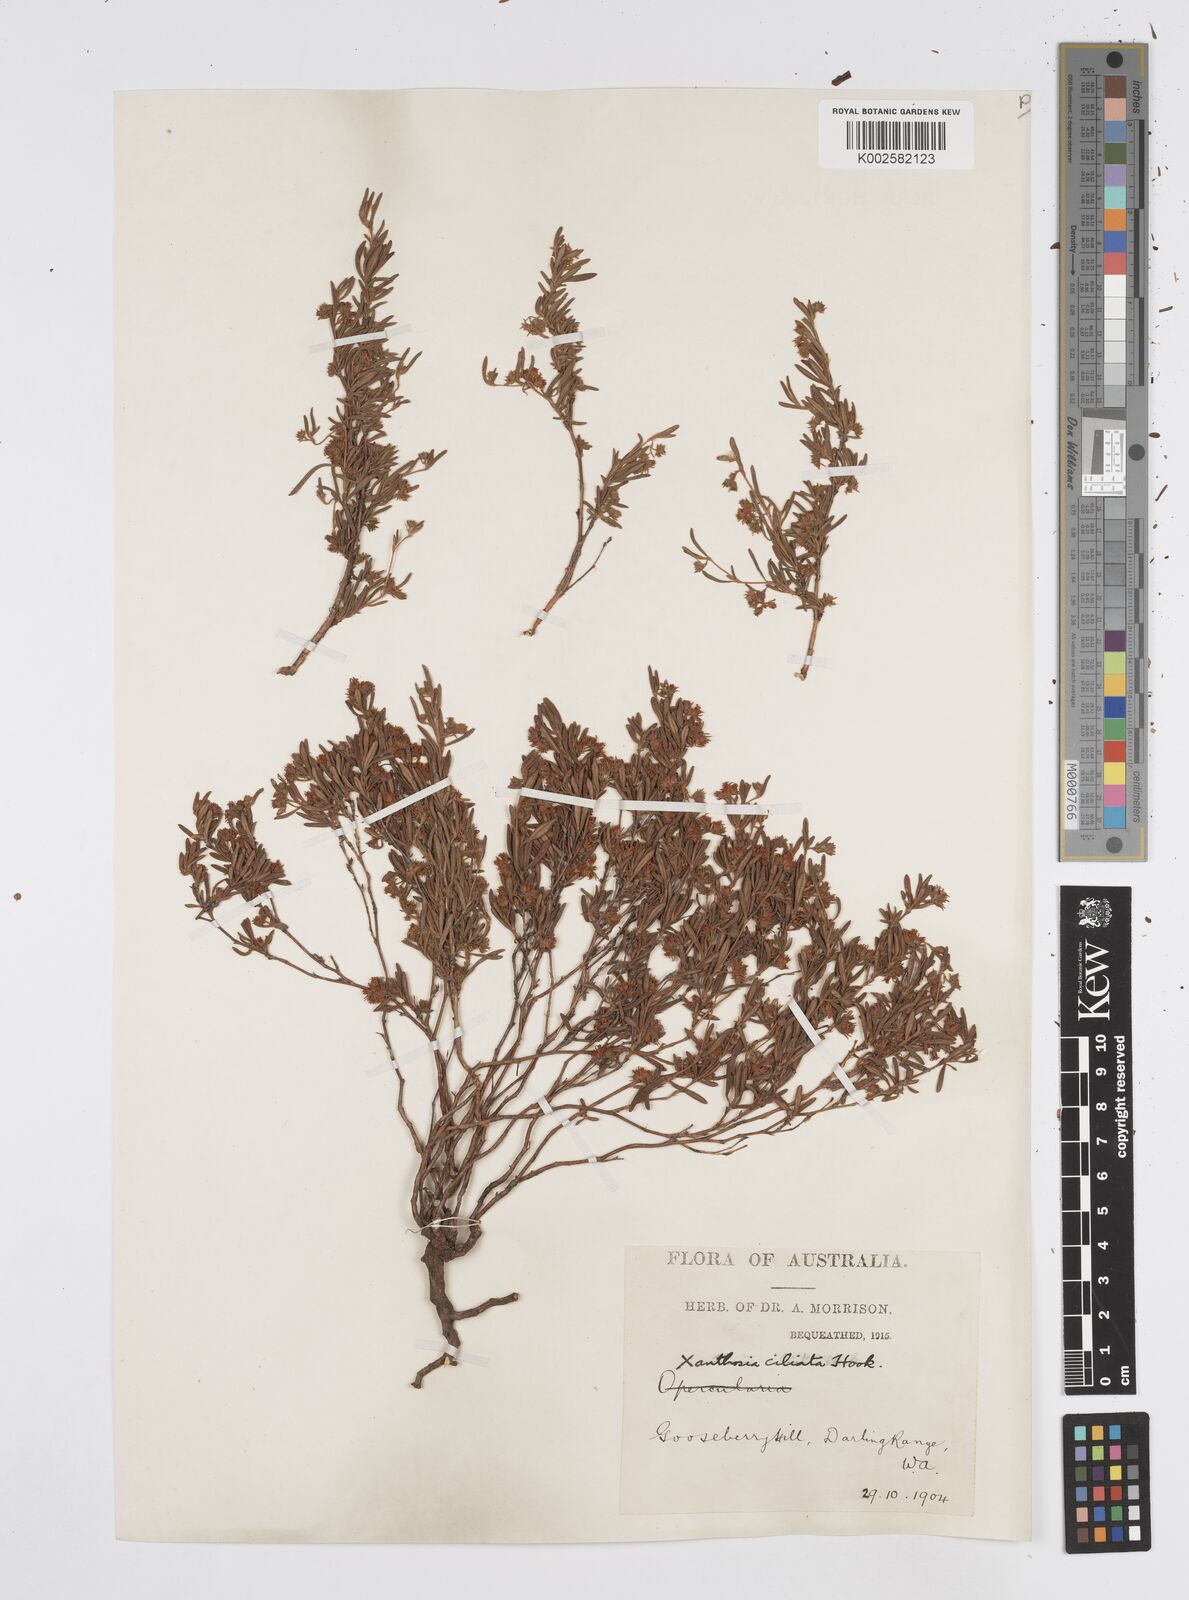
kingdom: Plantae
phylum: Tracheophyta
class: Magnoliopsida
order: Apiales
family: Apiaceae
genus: Xanthosia
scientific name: Xanthosia ciliata
